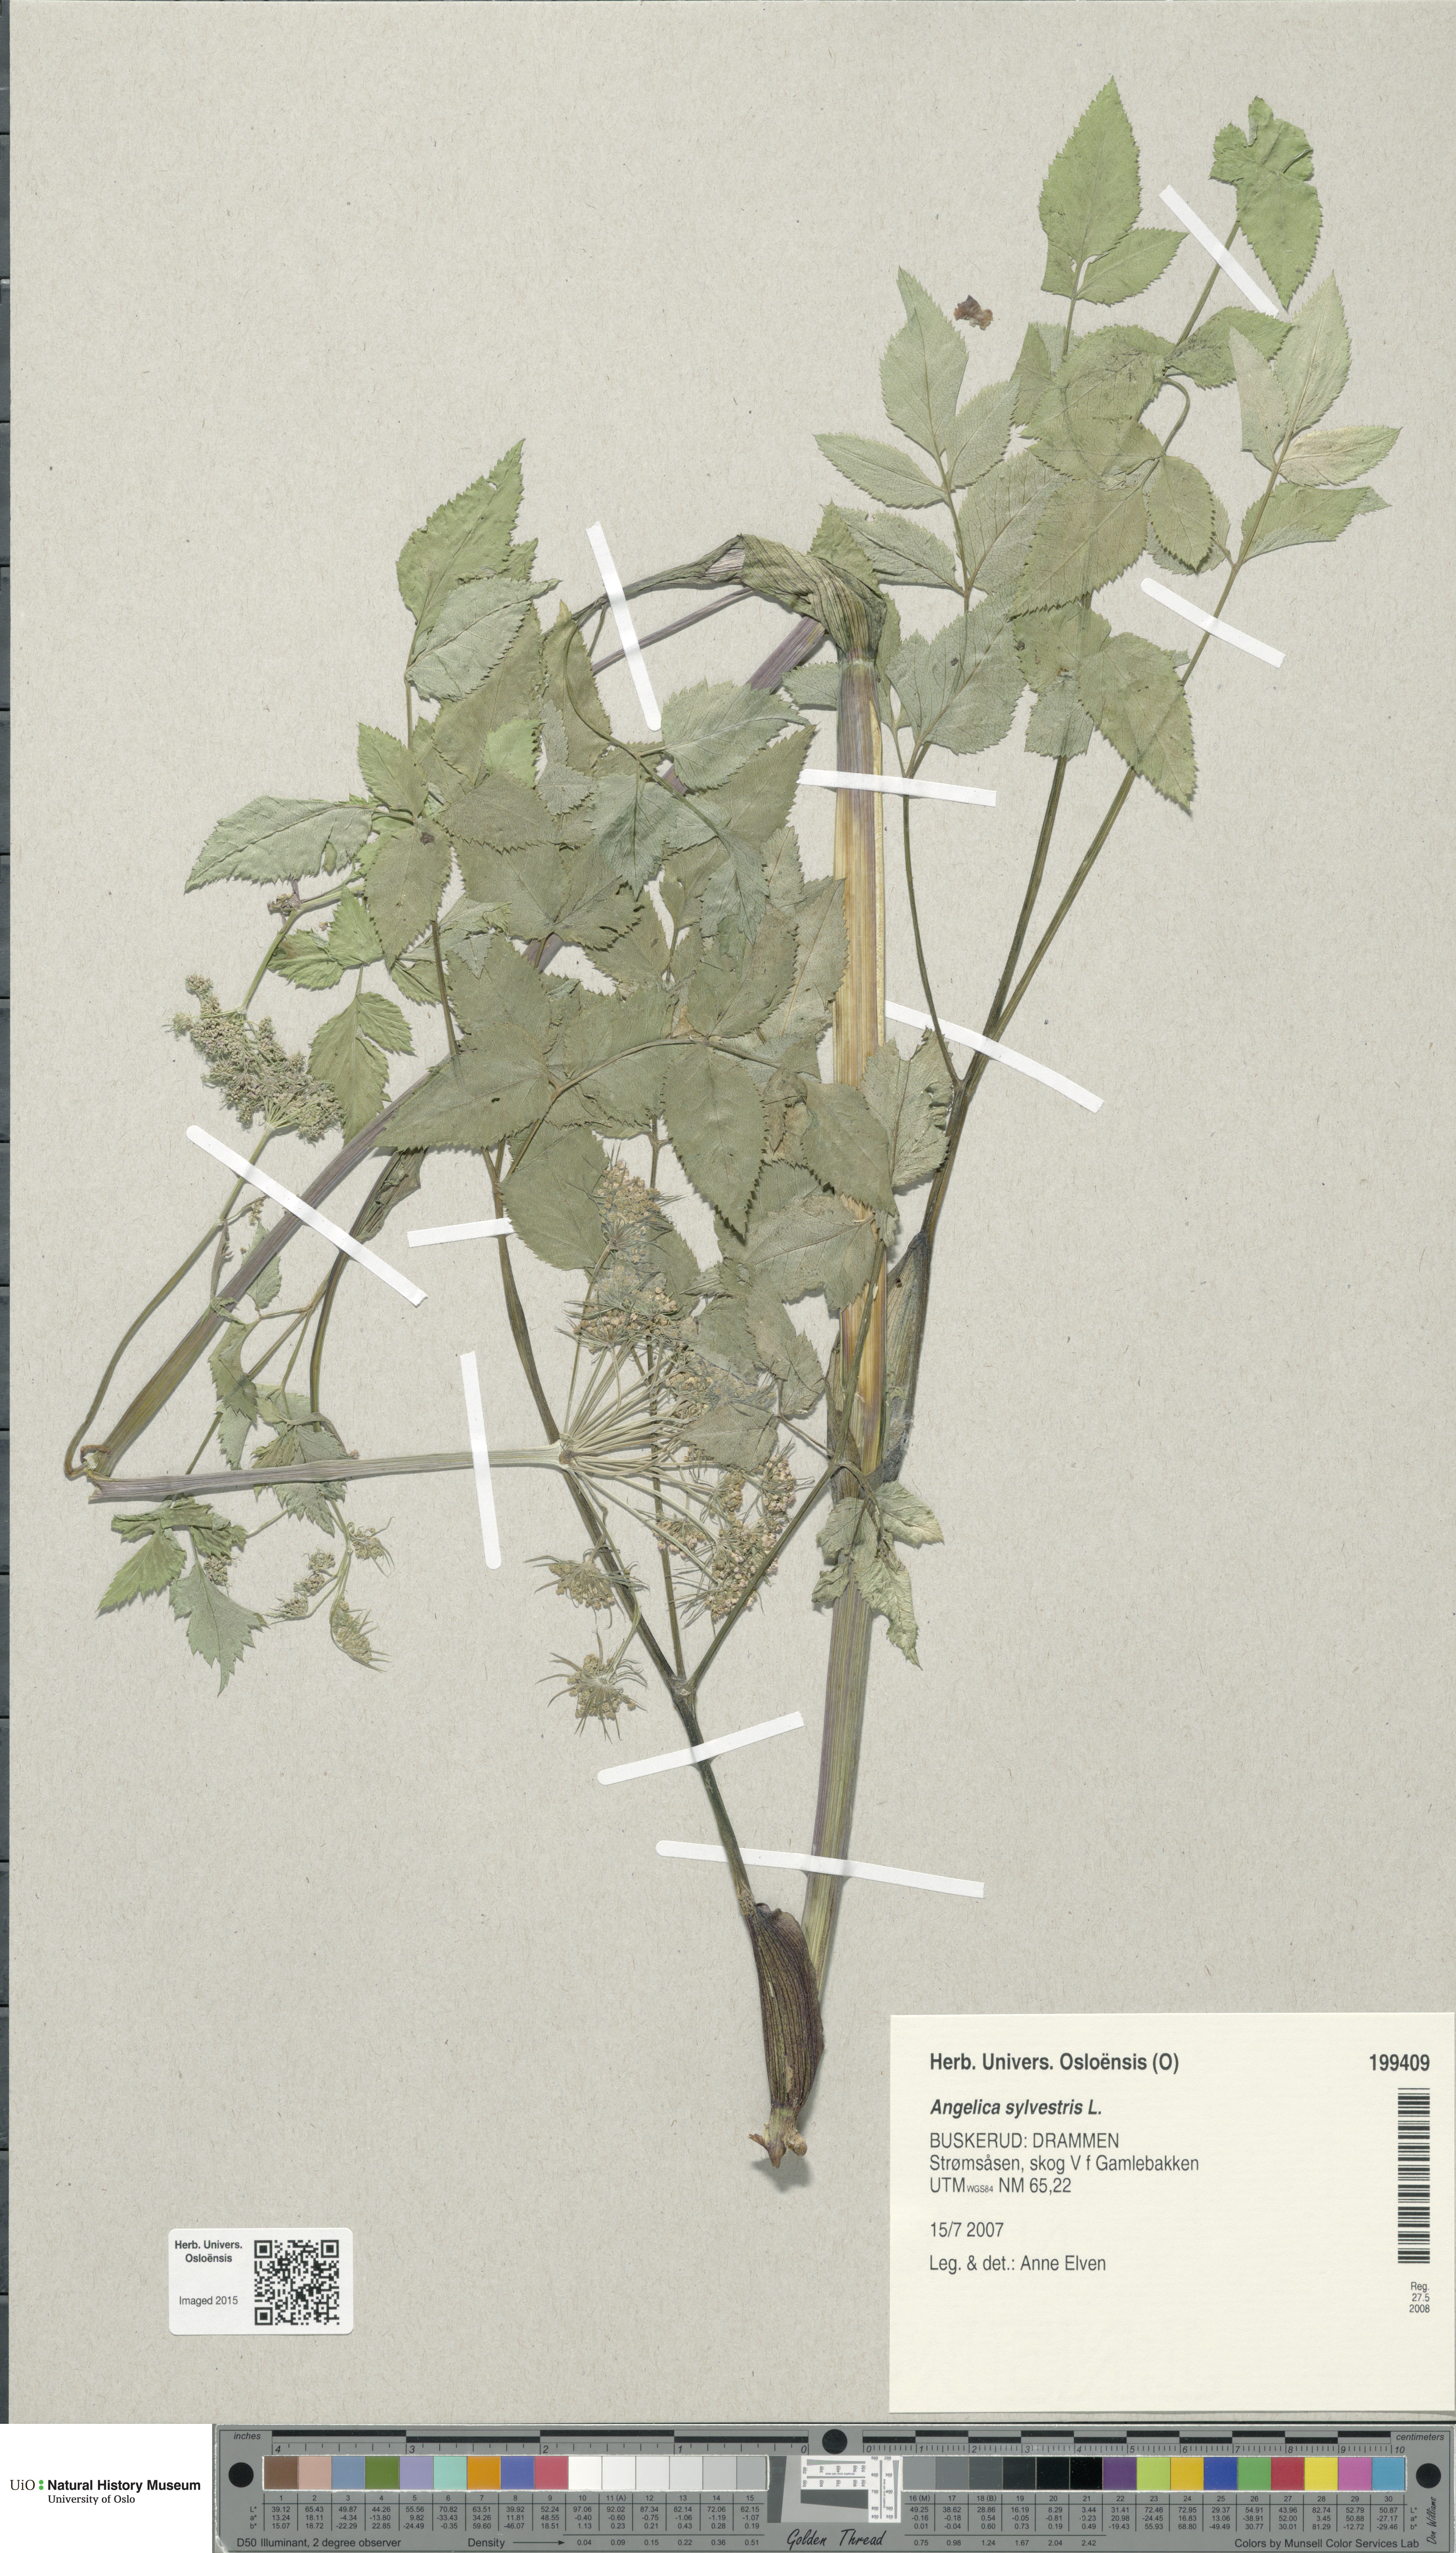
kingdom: Plantae
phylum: Tracheophyta
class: Magnoliopsida
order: Apiales
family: Apiaceae
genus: Angelica
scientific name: Angelica sylvestris
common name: Wild angelica
